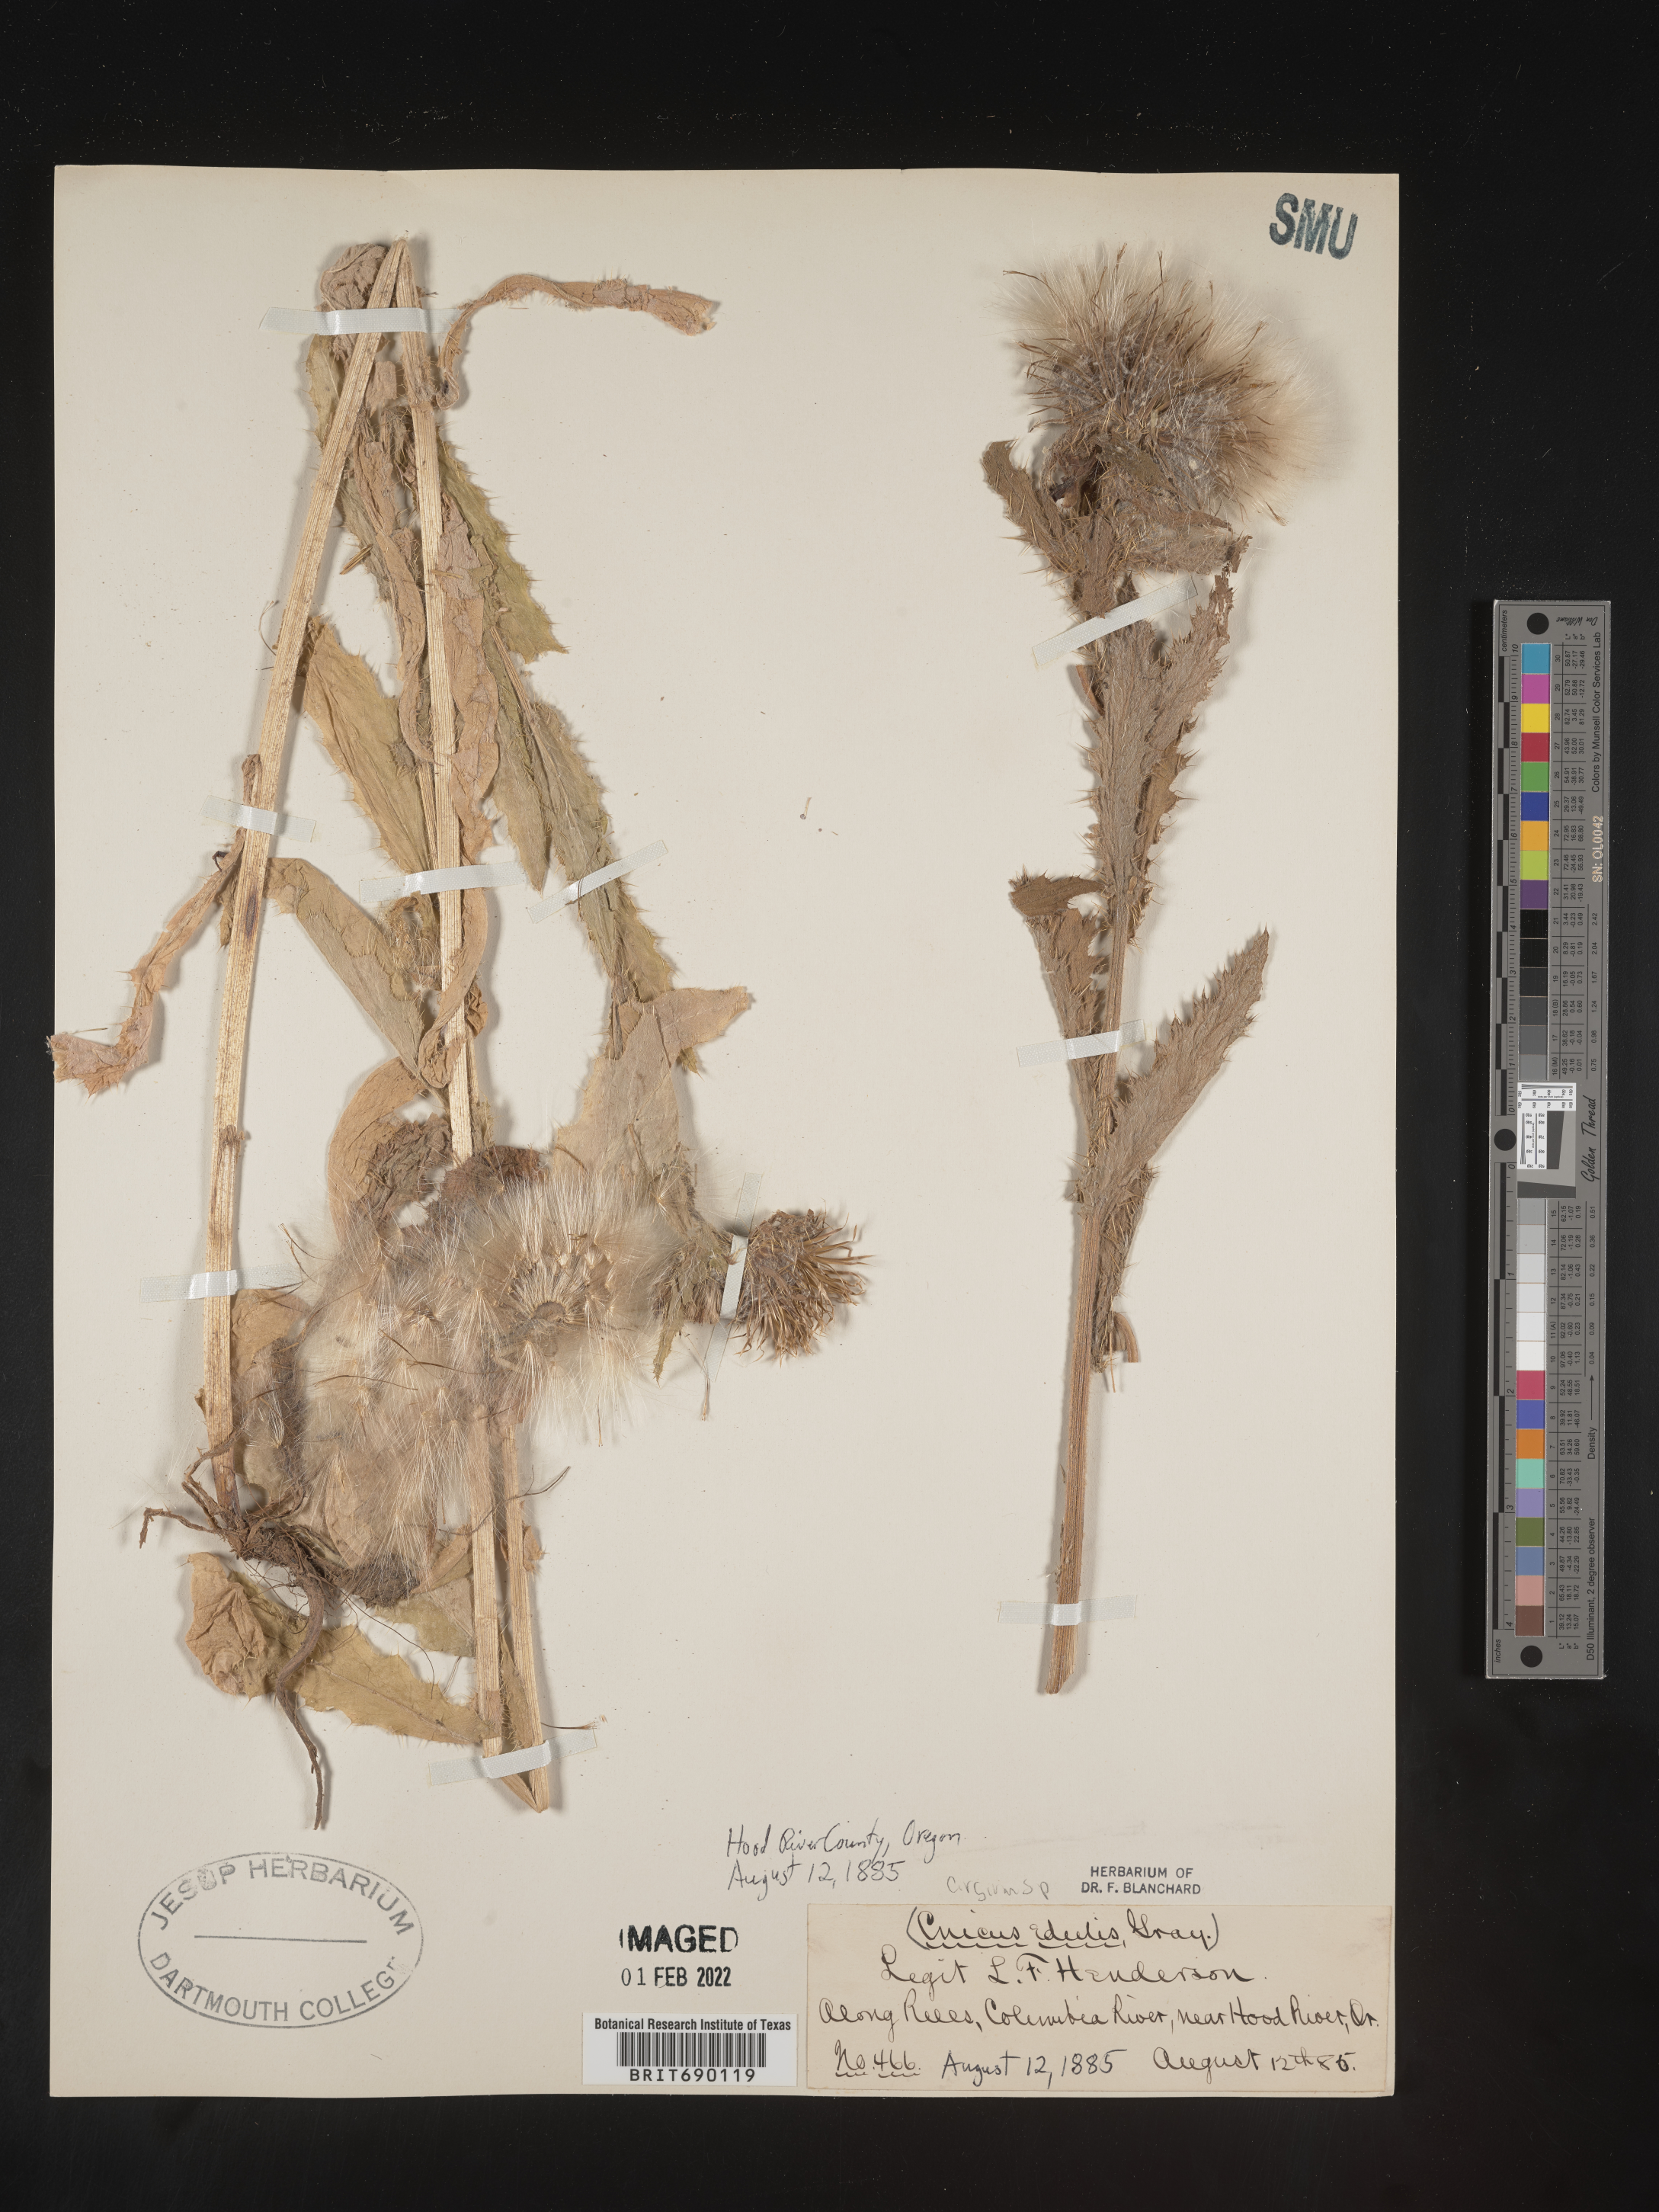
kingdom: Plantae
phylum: Tracheophyta
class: Magnoliopsida
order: Asterales
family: Asteraceae
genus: Cirsium
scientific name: Cirsium
